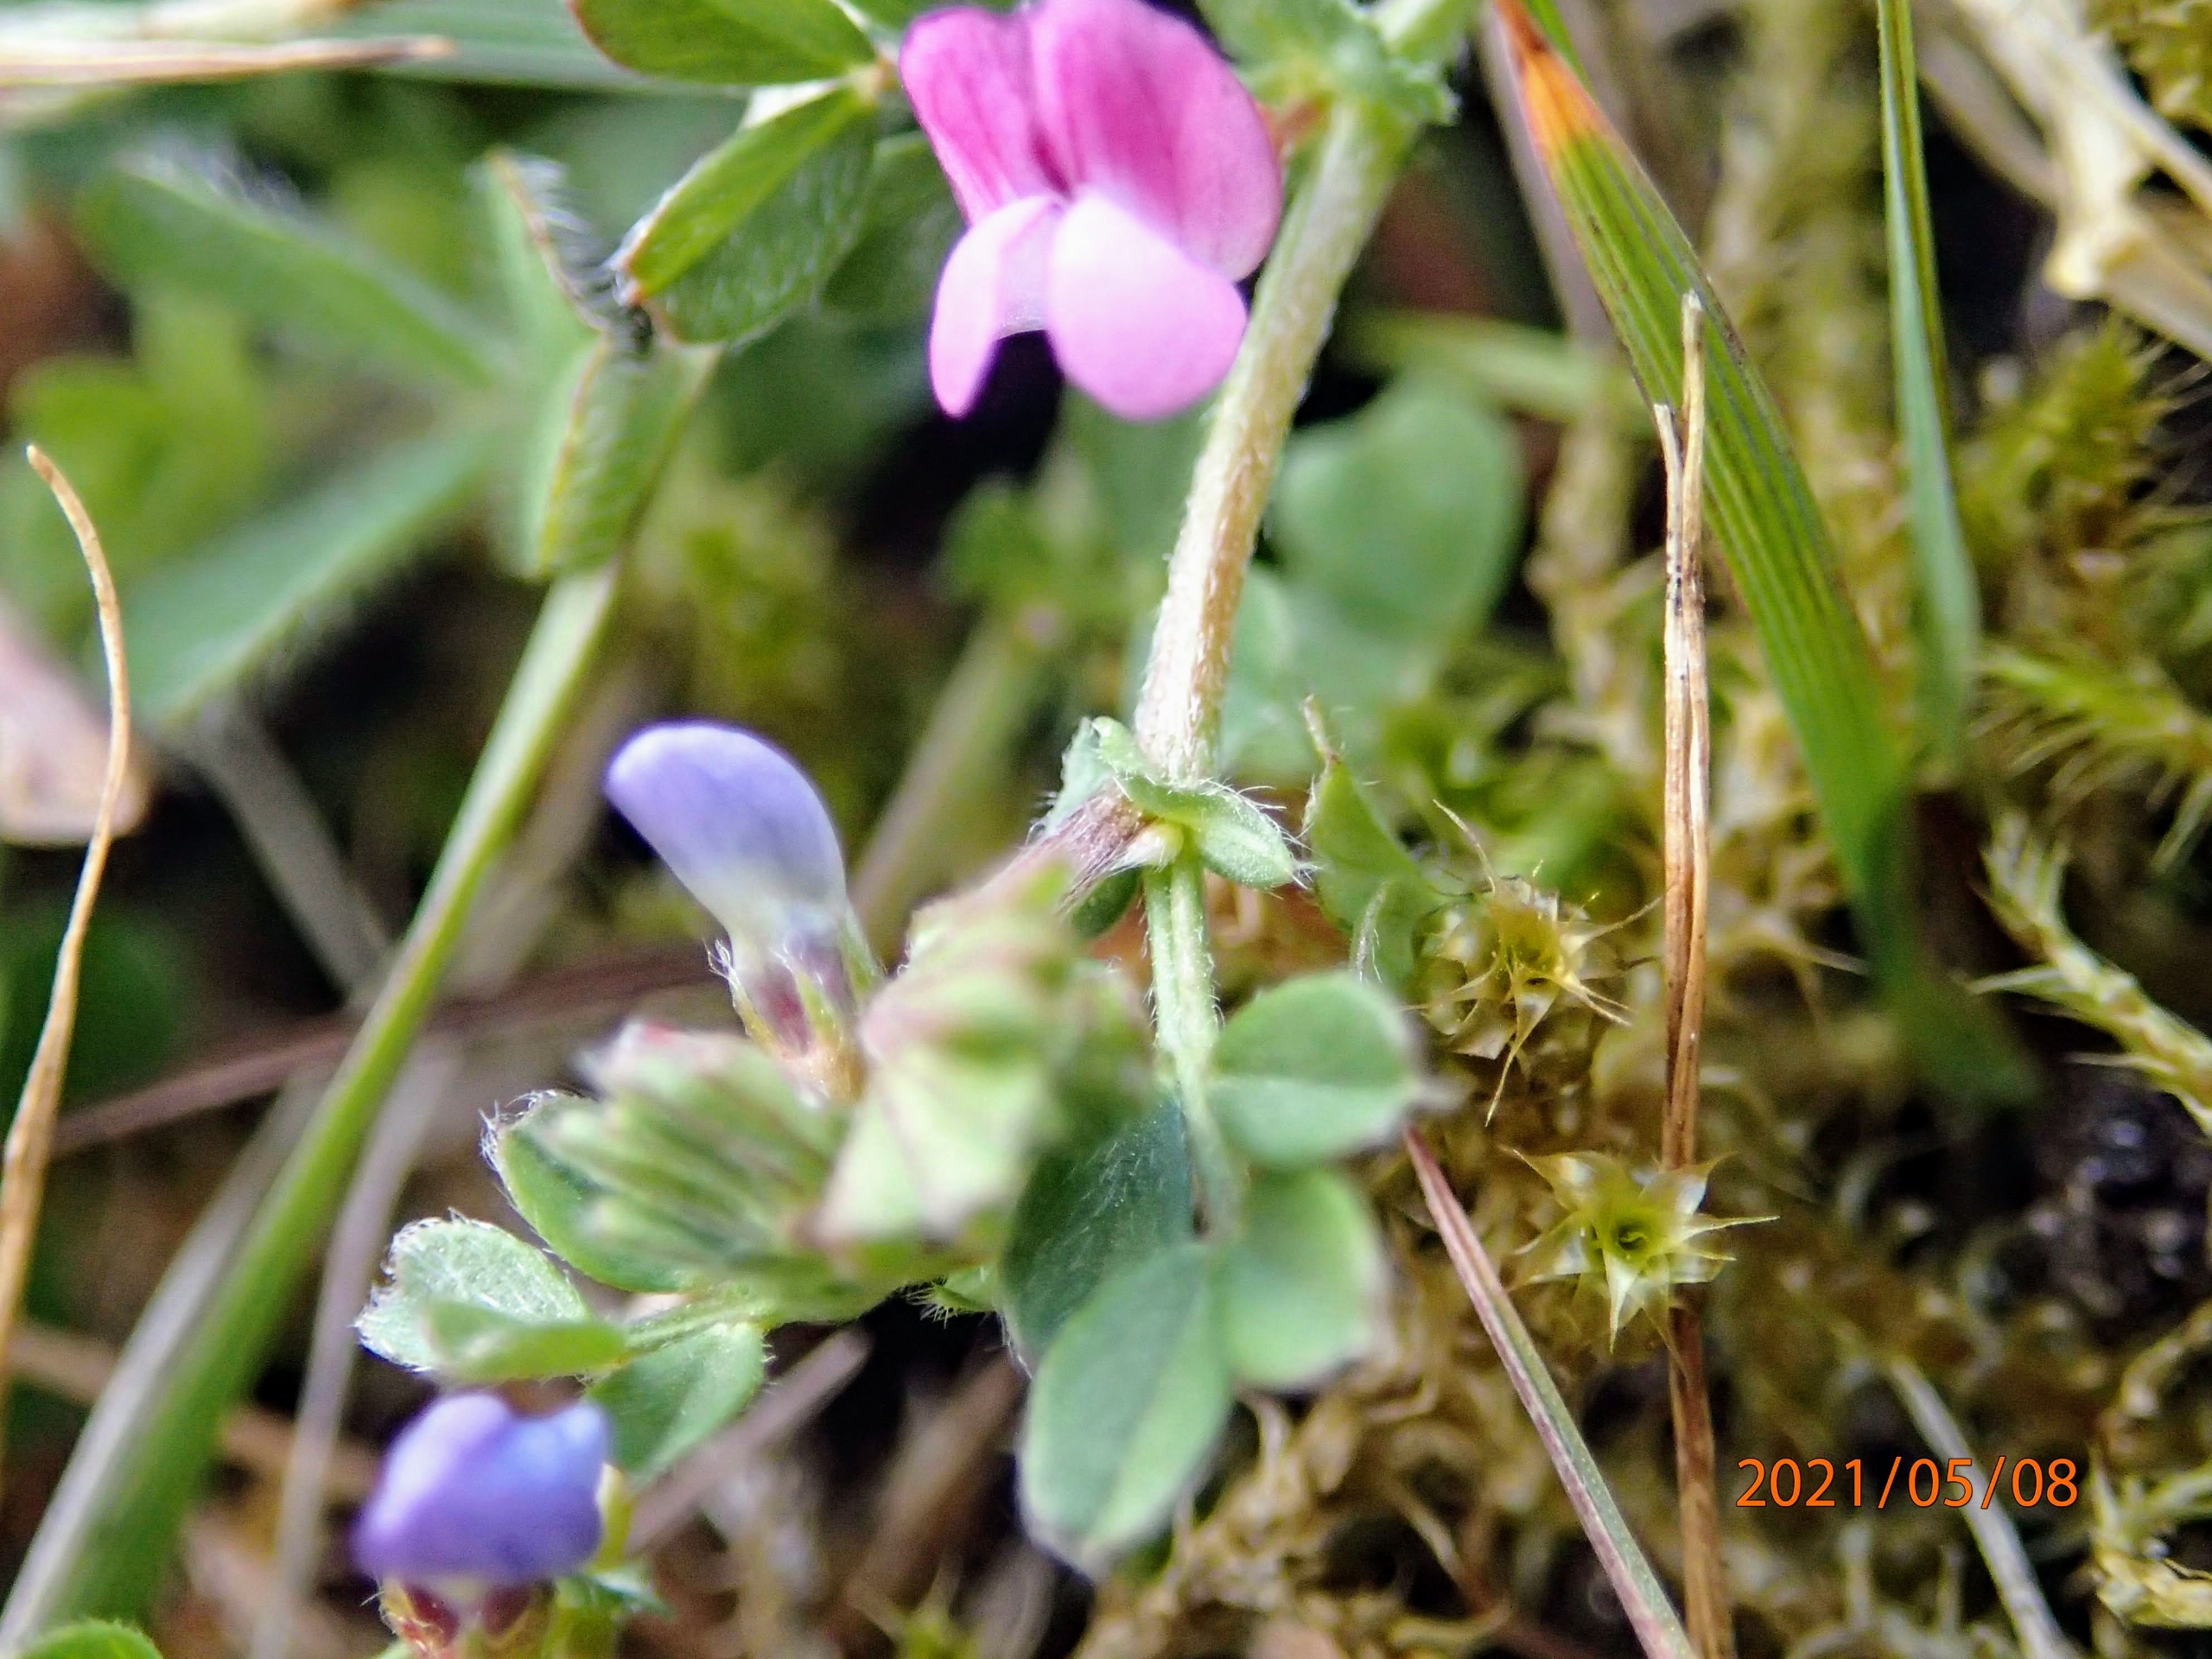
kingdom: Plantae
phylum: Tracheophyta
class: Magnoliopsida
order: Fabales
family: Fabaceae
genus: Vicia
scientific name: Vicia lathyroides
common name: Vår-vikke
